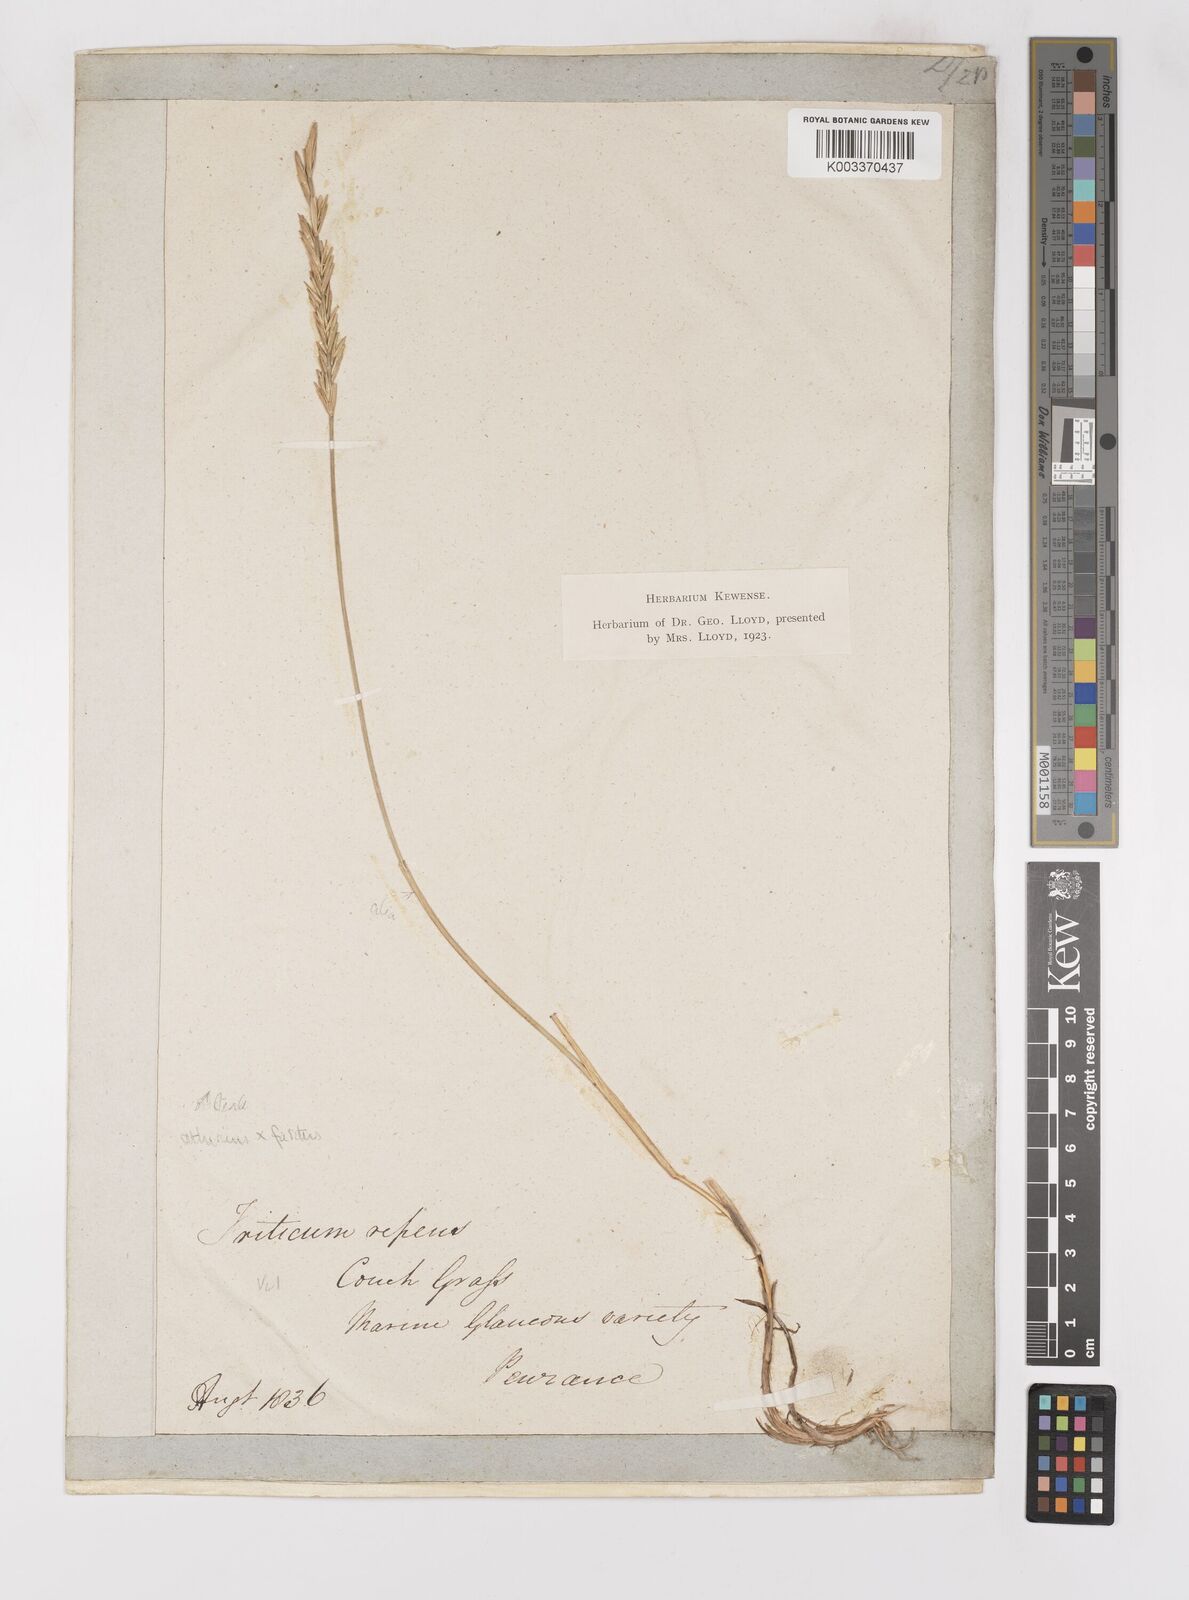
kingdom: Plantae
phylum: Tracheophyta
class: Liliopsida
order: Poales
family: Poaceae
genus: Thinoelymus
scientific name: Thinoelymus obtusiusculus
